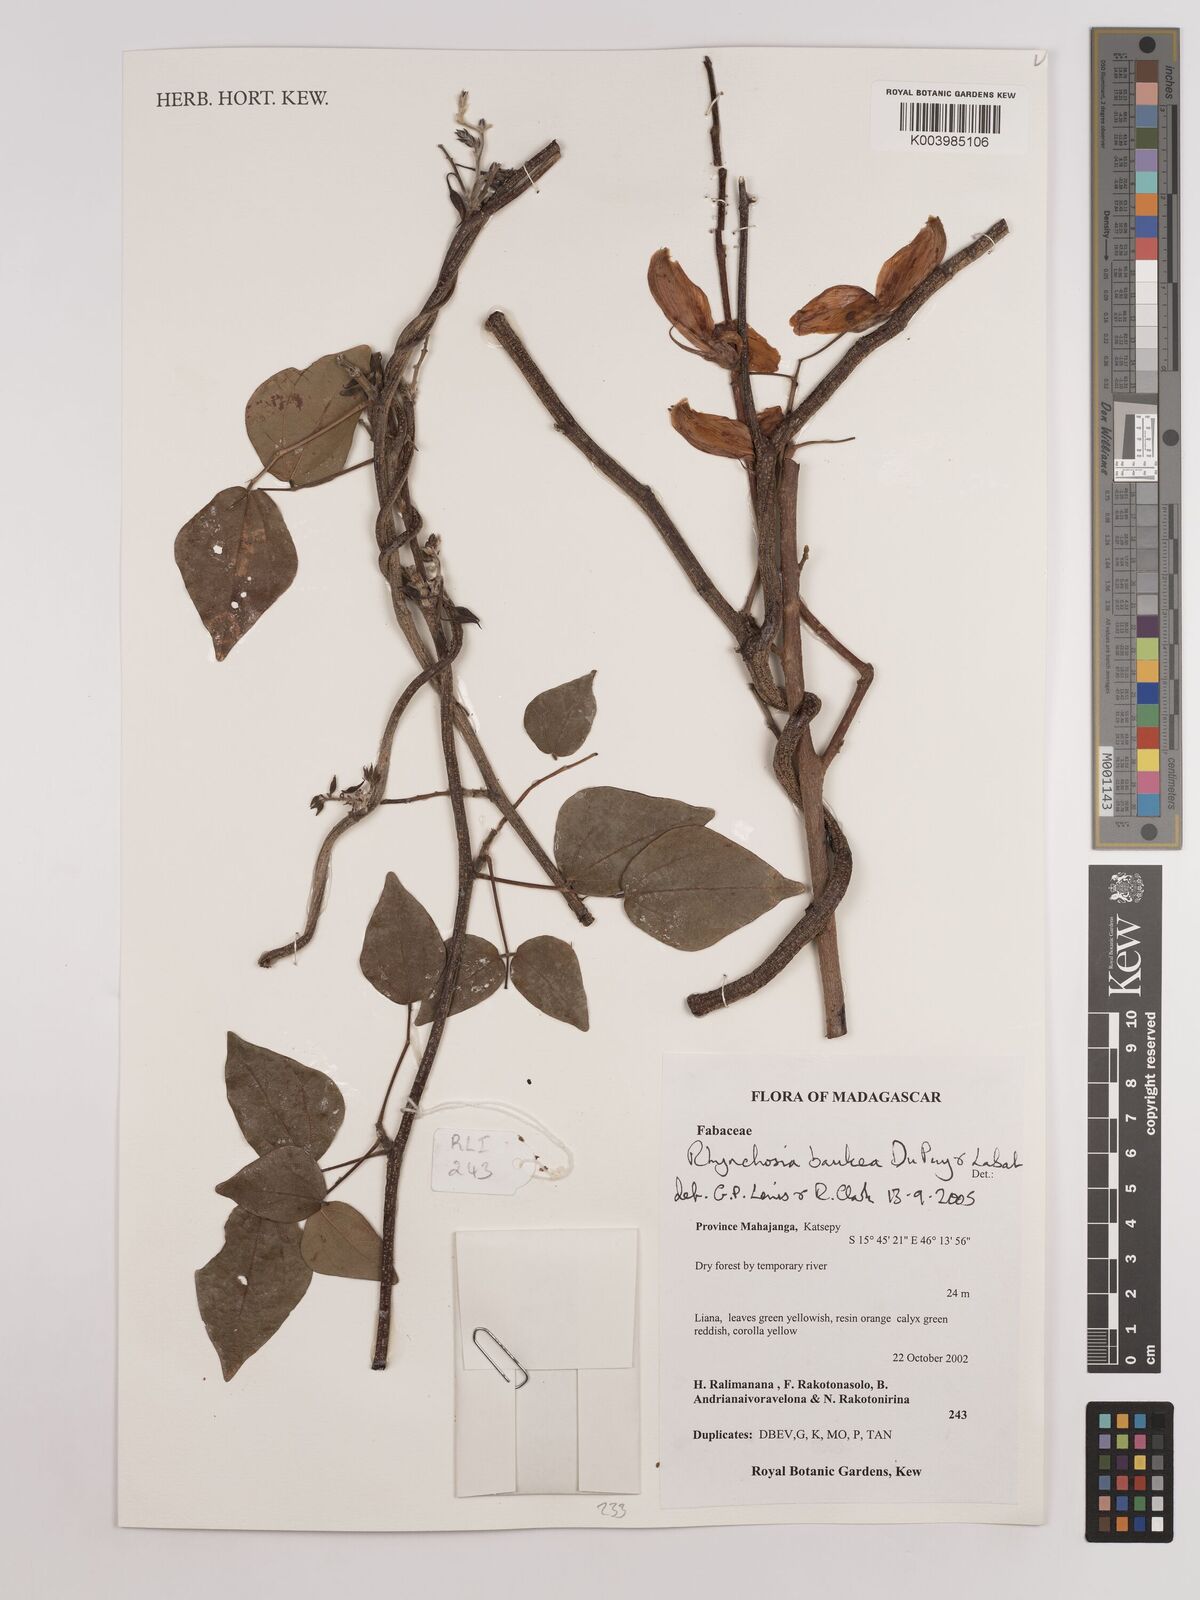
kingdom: Plantae
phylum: Tracheophyta
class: Magnoliopsida
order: Fabales
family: Fabaceae
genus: Rhynchosia
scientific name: Rhynchosia baukea
